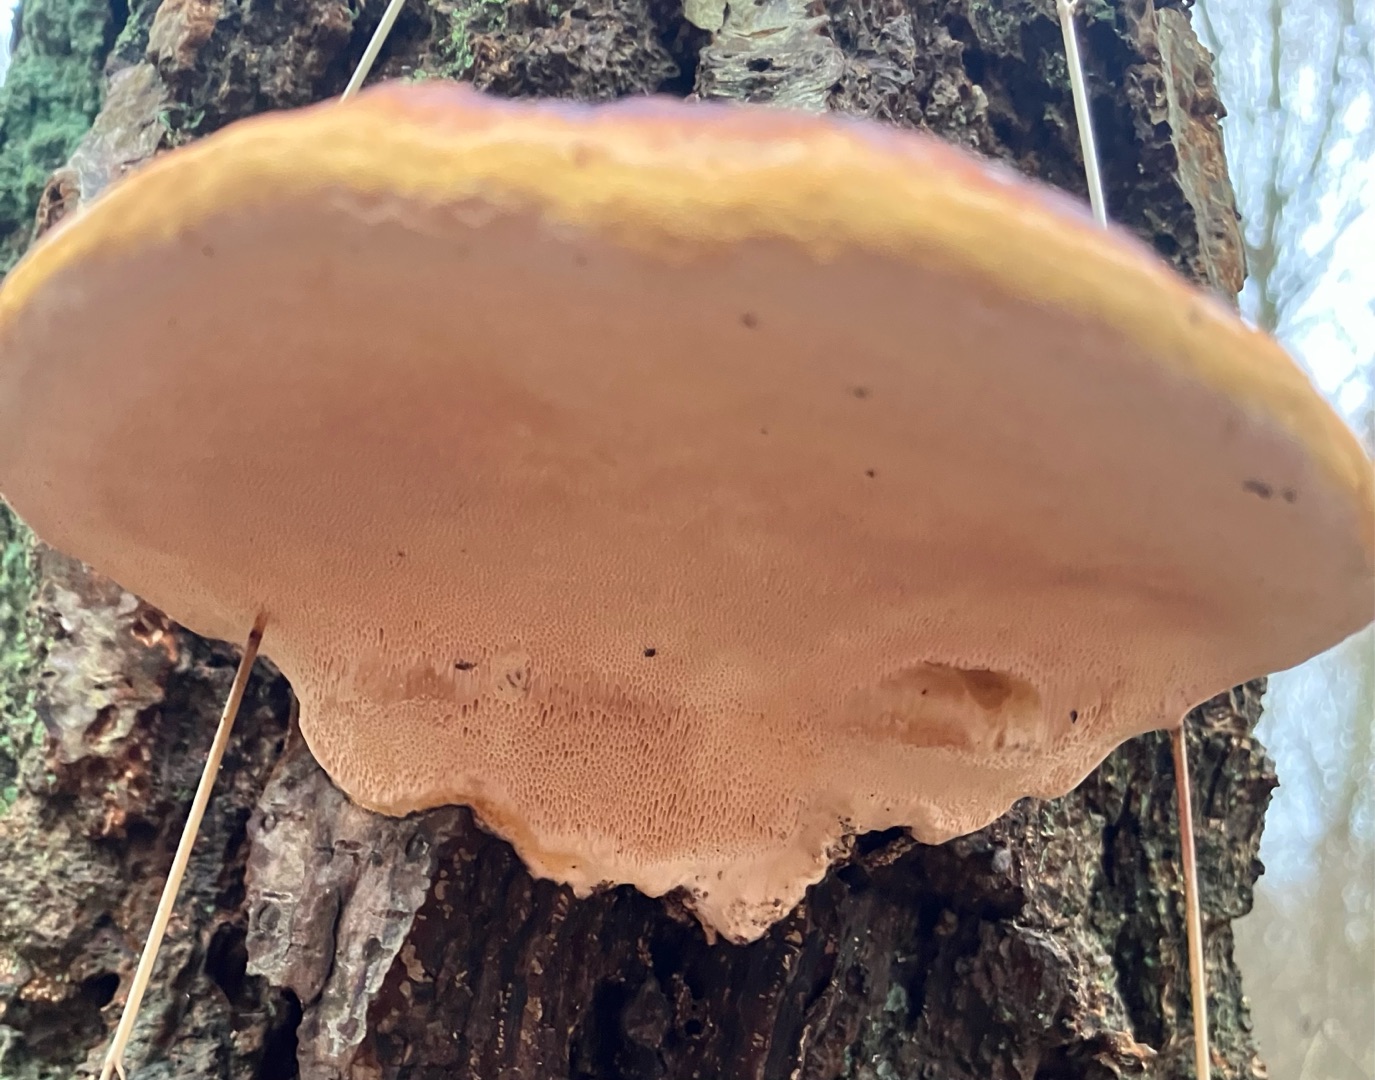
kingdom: Fungi
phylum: Basidiomycota
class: Agaricomycetes
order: Polyporales
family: Fomitopsidaceae
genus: Fomitopsis
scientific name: Fomitopsis pinicola
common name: Randbæltet hovporesvamp
